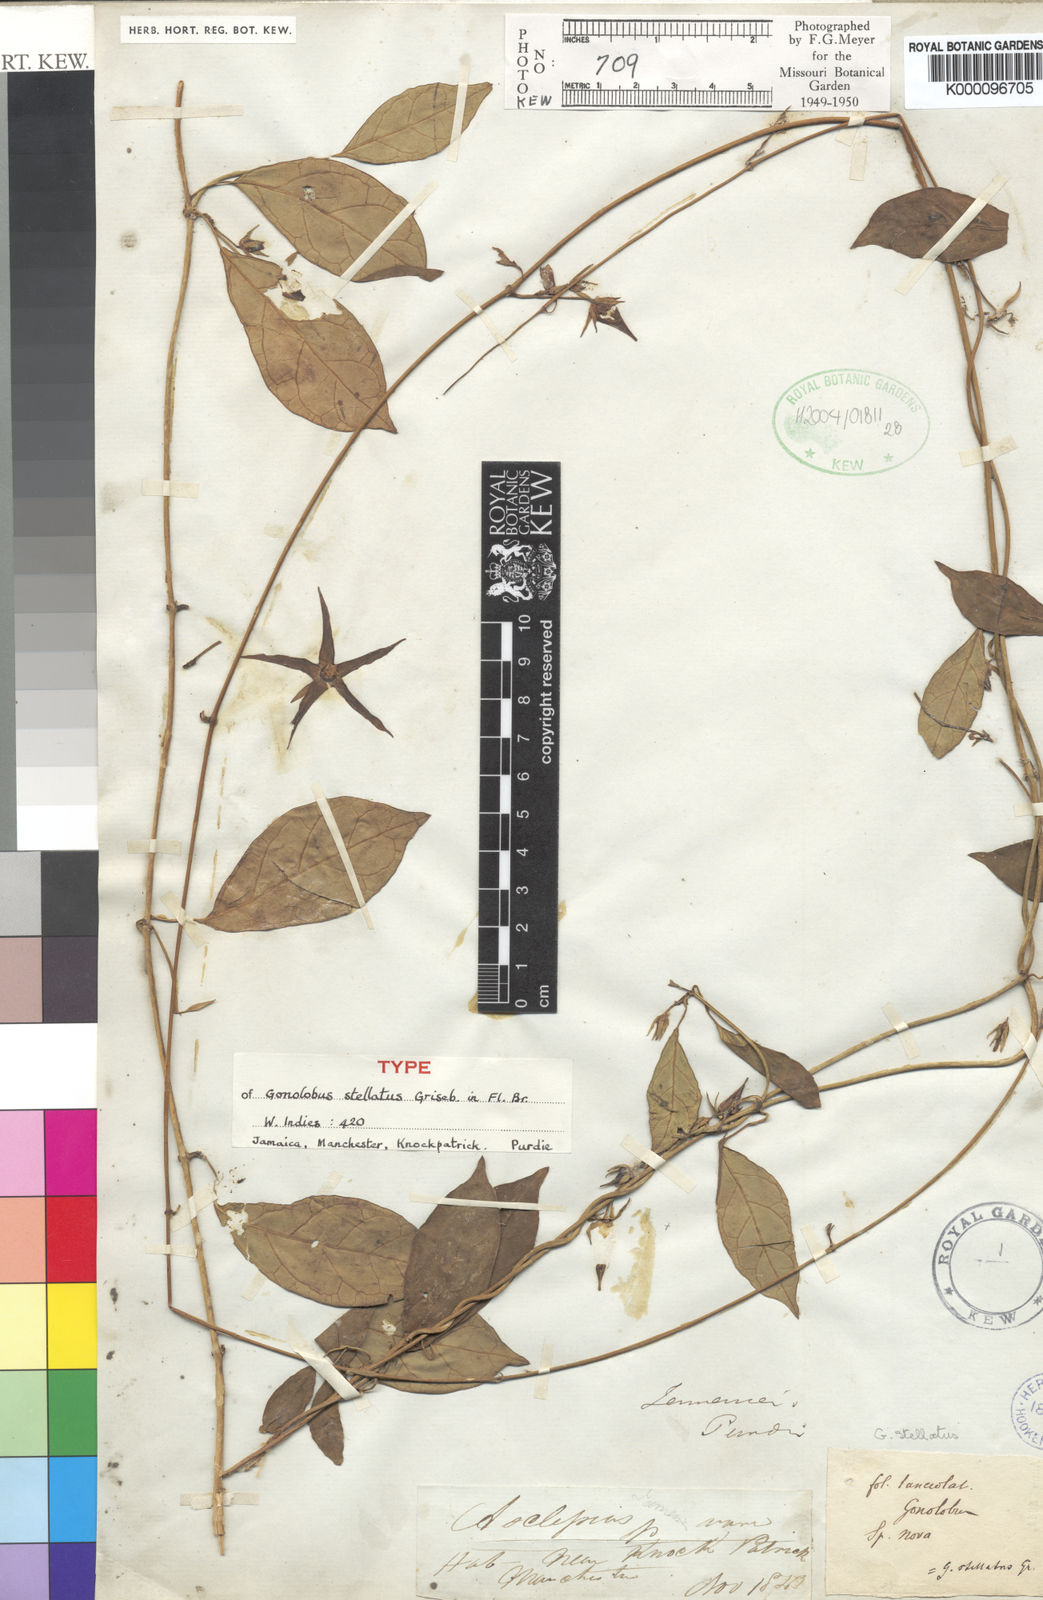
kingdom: Plantae
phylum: Tracheophyta
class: Magnoliopsida
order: Gentianales
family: Apocynaceae
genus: Gonolobus
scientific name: Gonolobus stellatus
